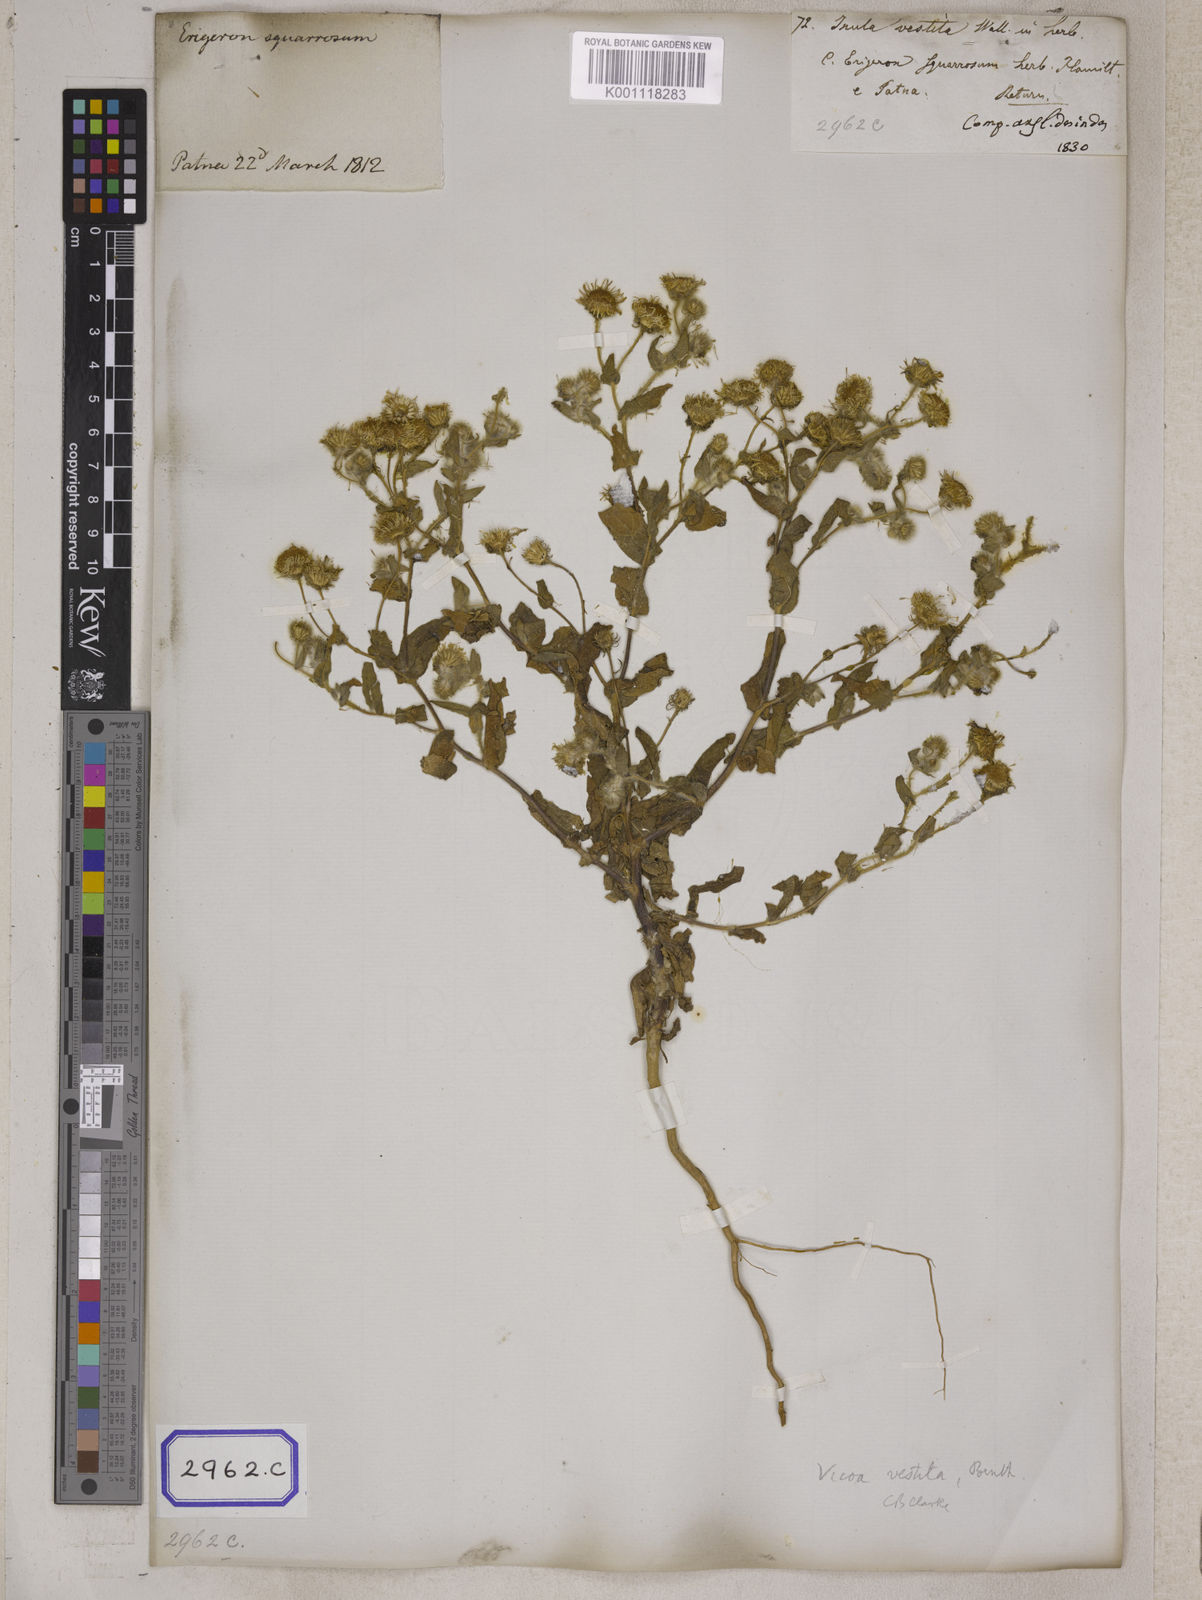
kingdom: Plantae
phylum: Tracheophyta
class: Magnoliopsida
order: Asterales
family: Asteraceae
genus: Pentanema
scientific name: Pentanema divaricatum
